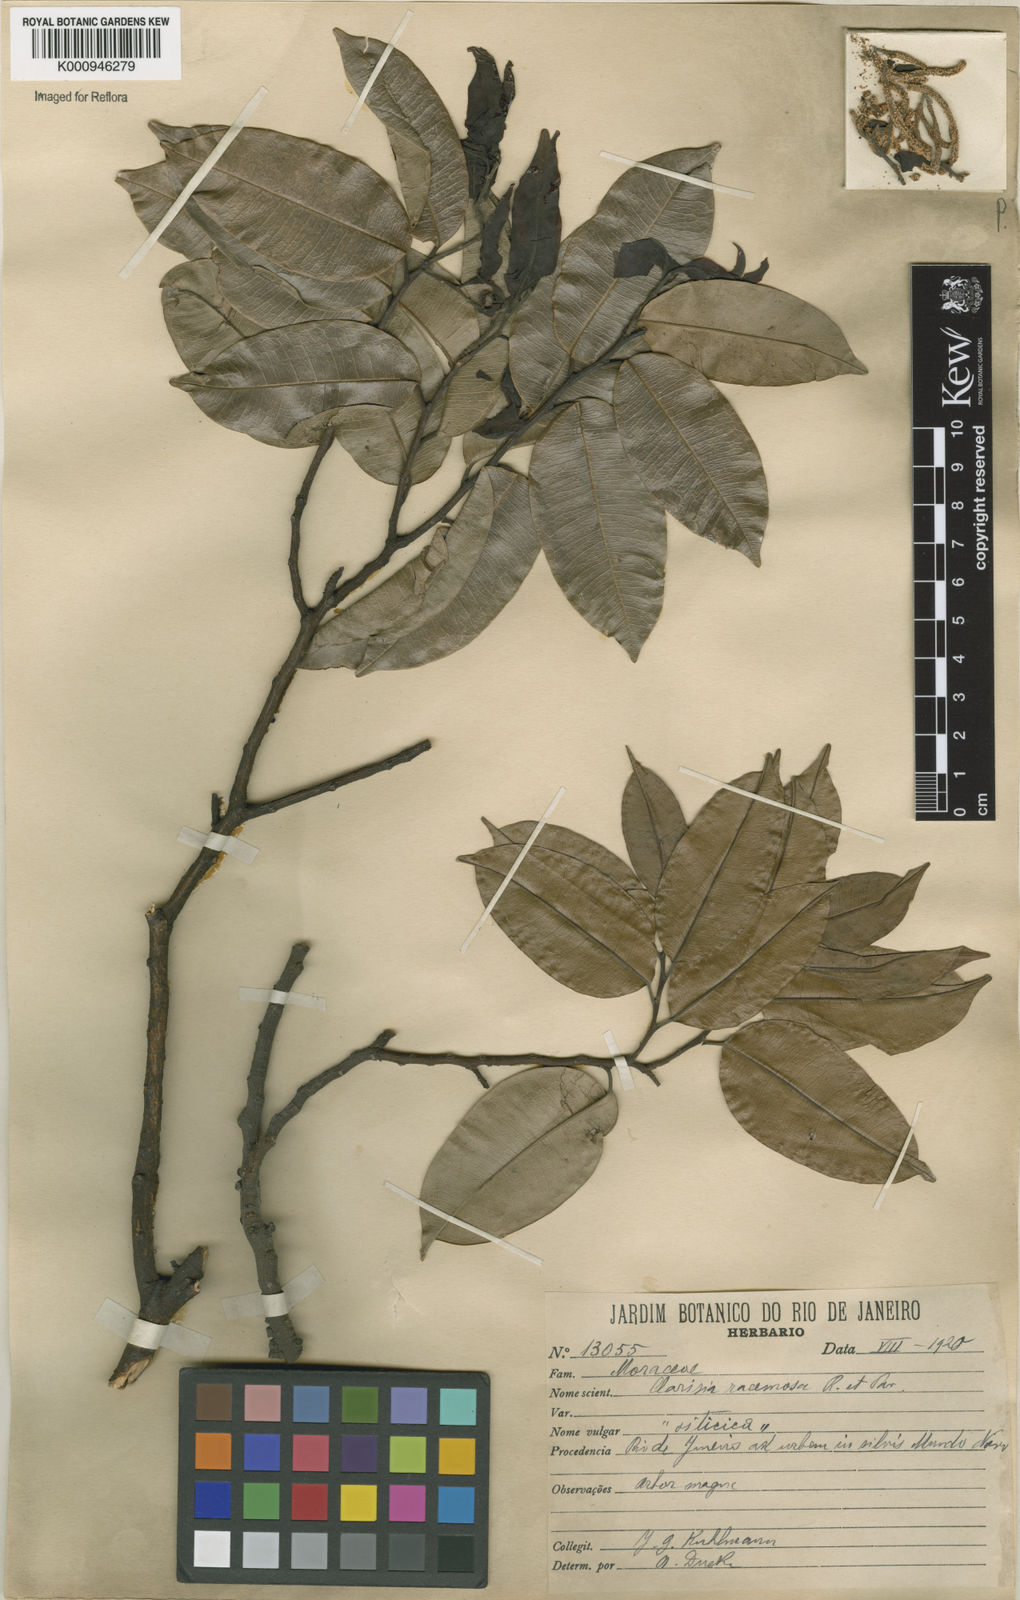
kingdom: Plantae
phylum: Tracheophyta
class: Magnoliopsida
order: Rosales
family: Moraceae
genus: Clarisia
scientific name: Clarisia racemosa
